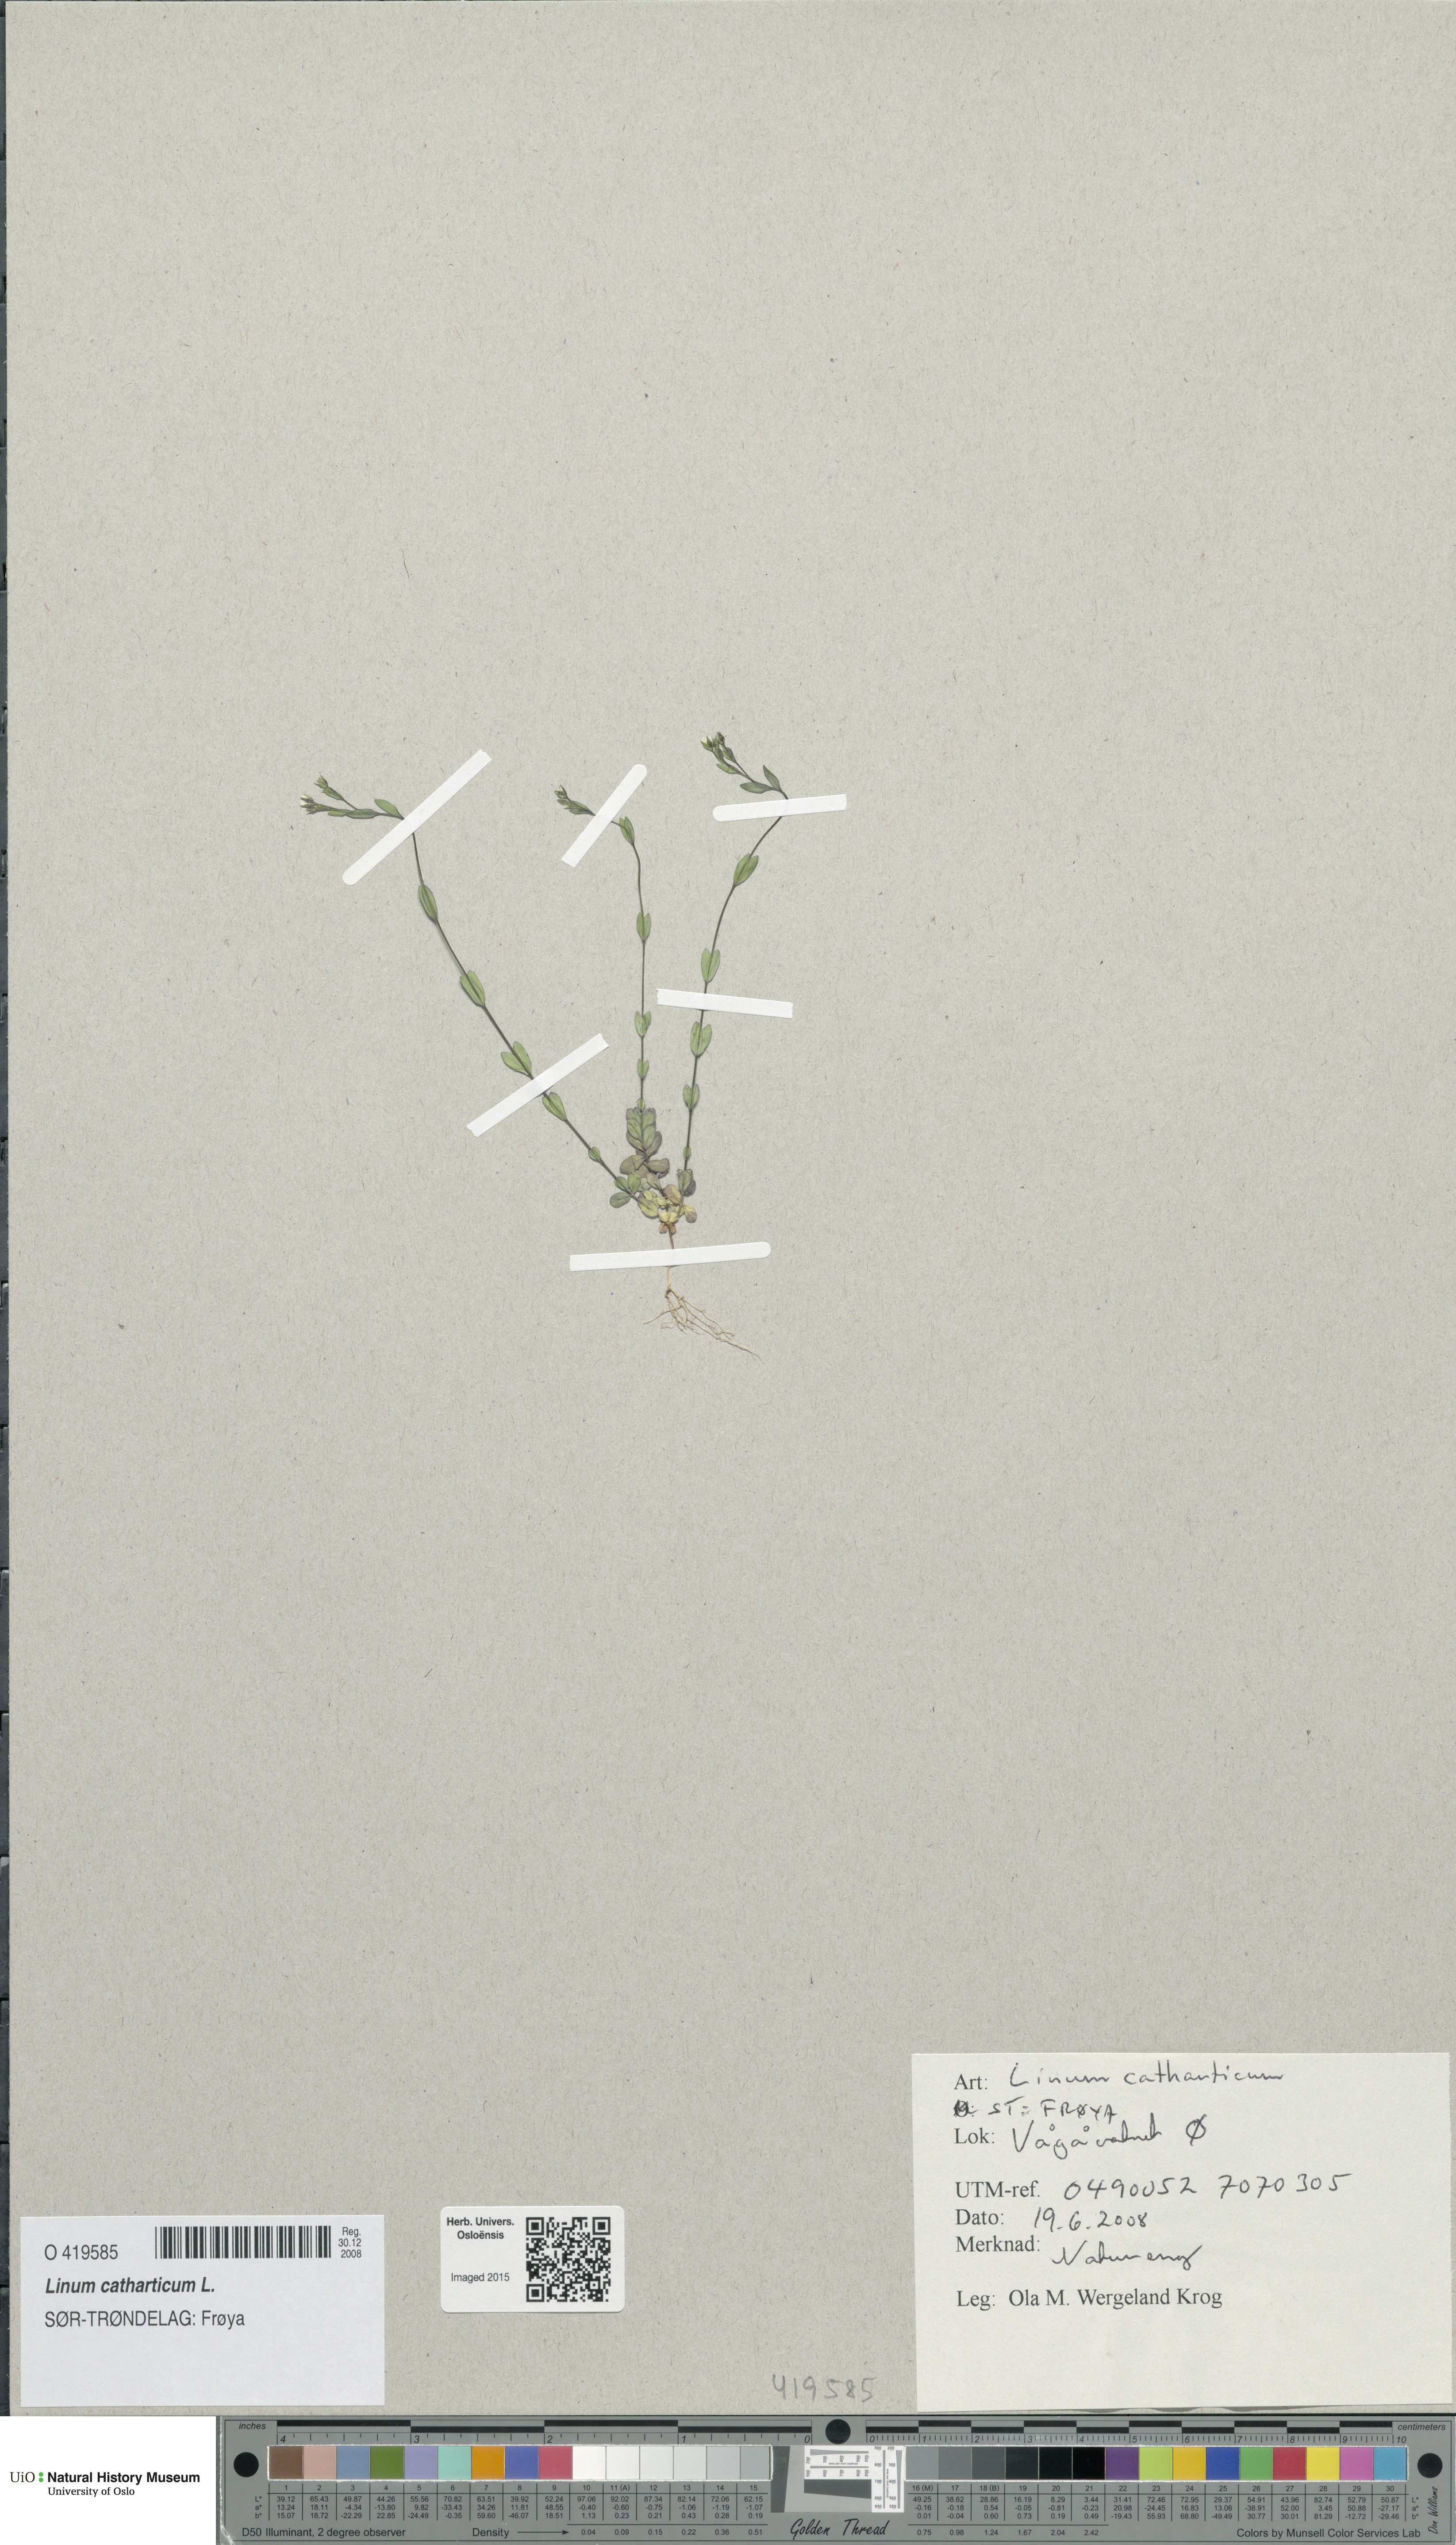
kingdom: Plantae
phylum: Tracheophyta
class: Magnoliopsida
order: Malpighiales
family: Linaceae
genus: Linum
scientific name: Linum catharticum
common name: Fairy flax
